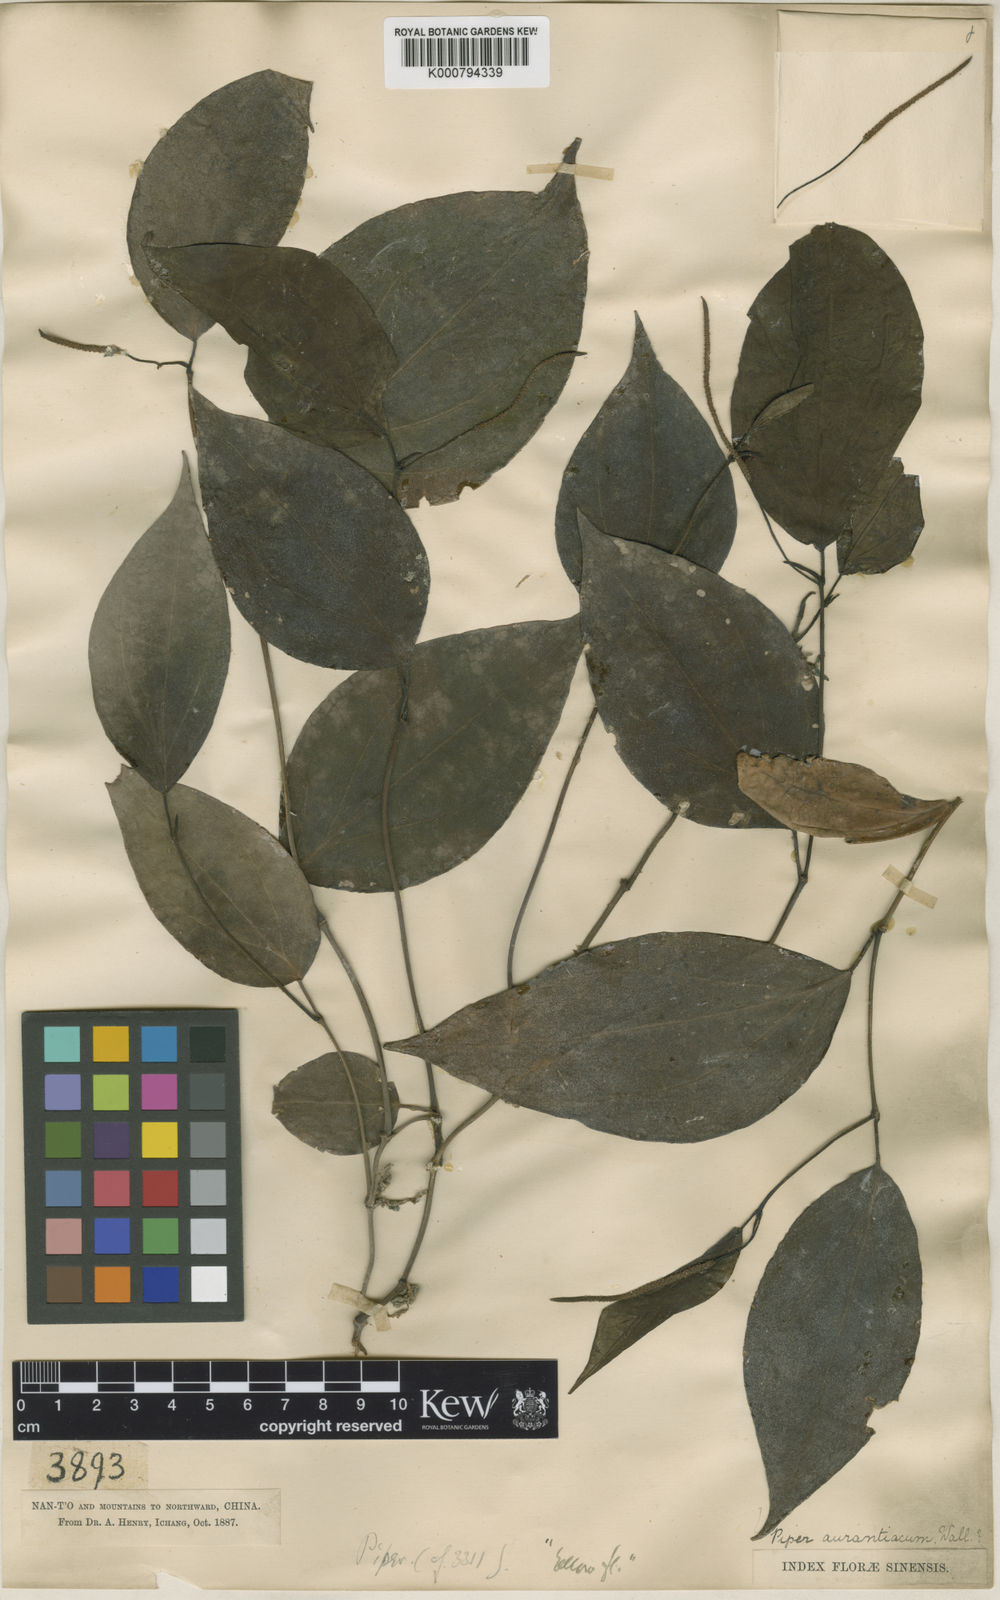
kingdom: Plantae
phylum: Tracheophyta
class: Magnoliopsida
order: Piperales
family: Piperaceae
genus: Piper
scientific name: Piper wallichii
